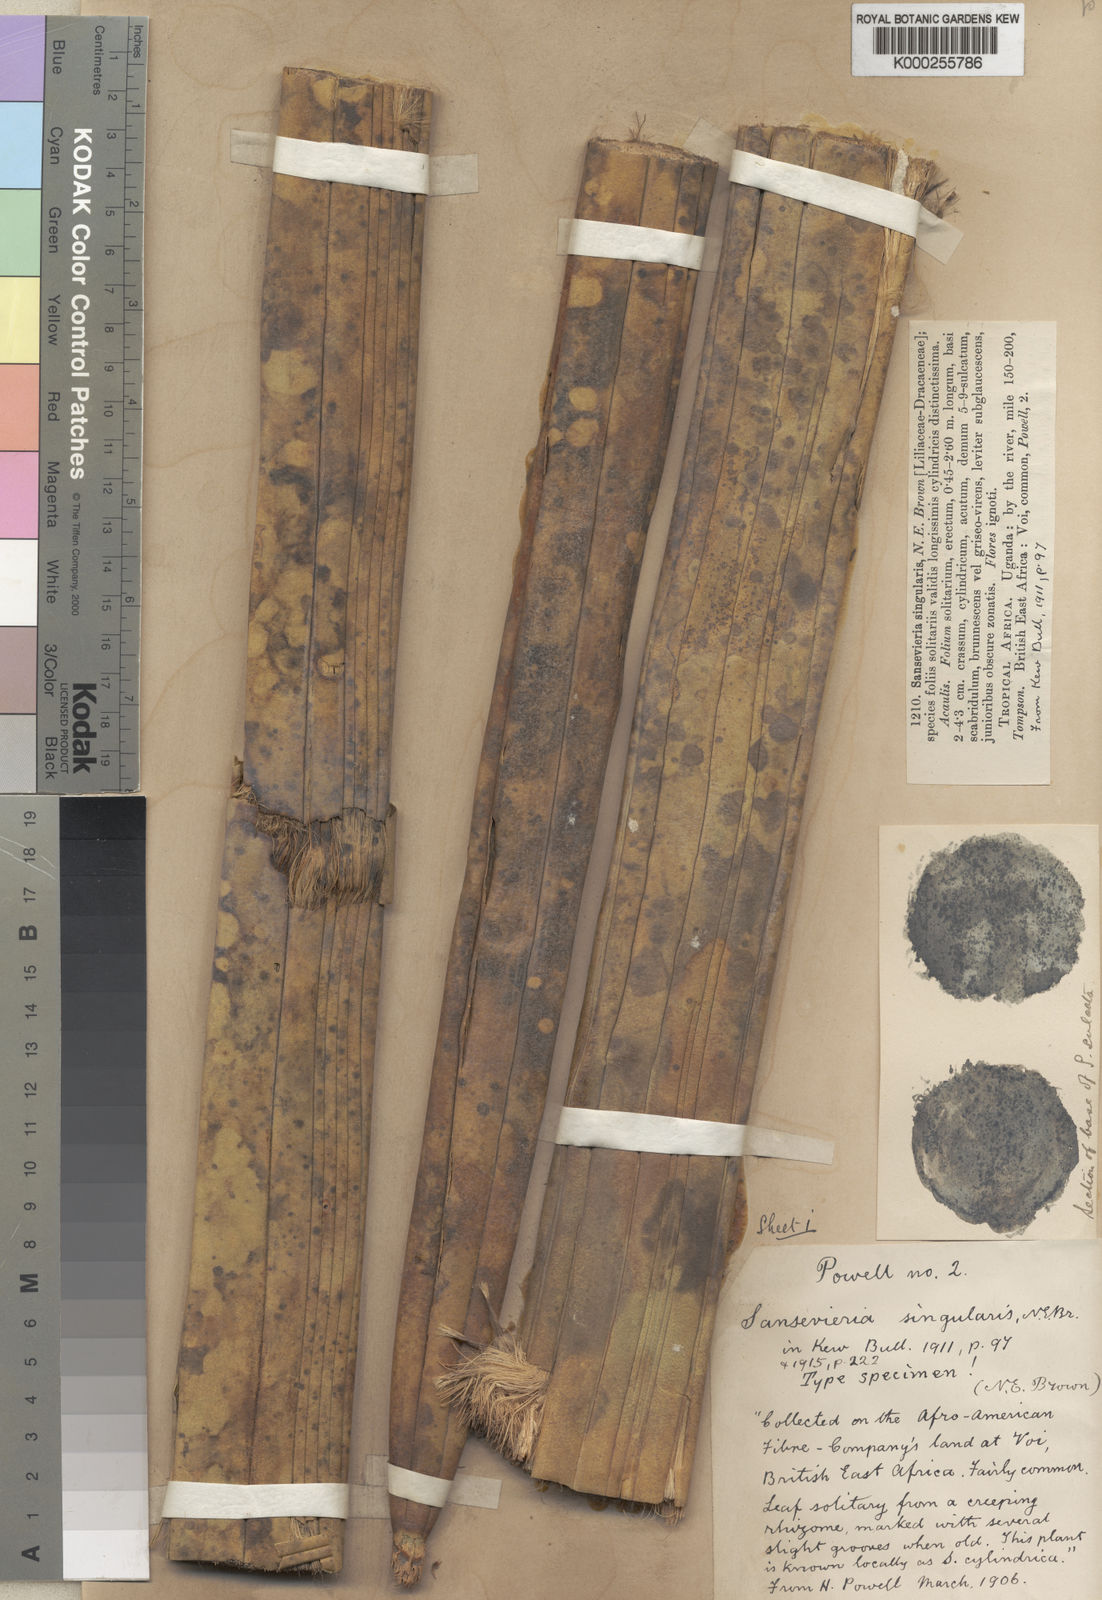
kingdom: Plantae
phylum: Tracheophyta
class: Liliopsida
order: Asparagales
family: Asparagaceae
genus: Dracaena
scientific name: Dracaena singularis
